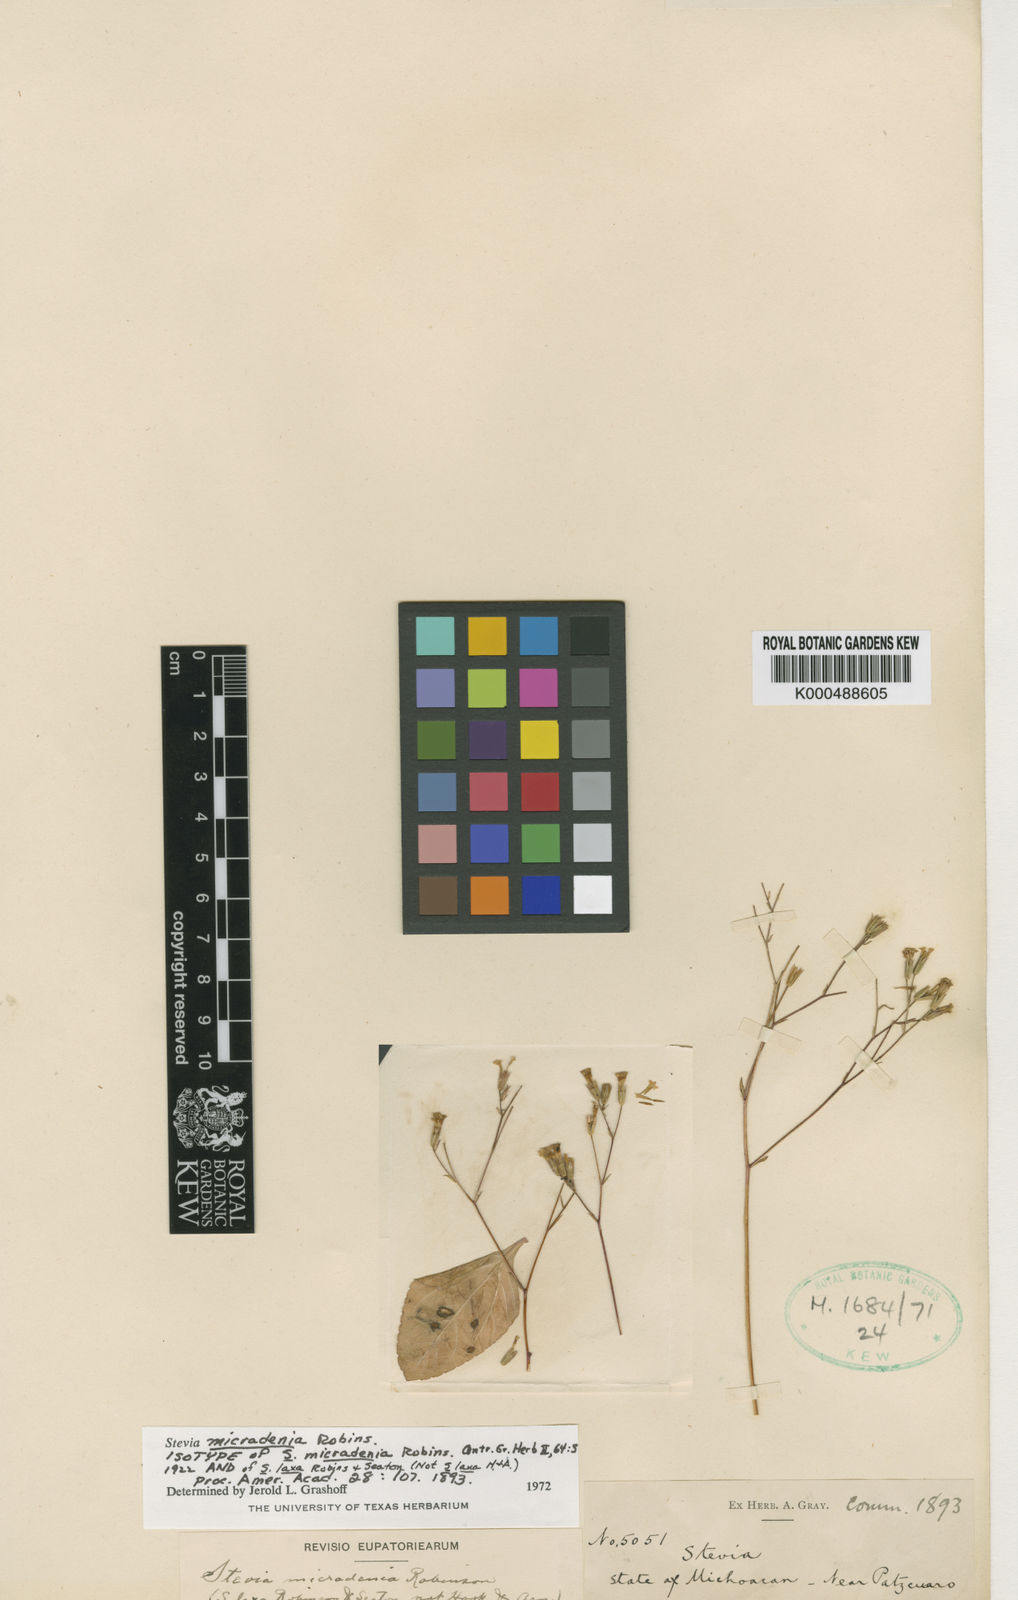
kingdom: Plantae
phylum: Tracheophyta
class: Magnoliopsida
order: Asterales
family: Asteraceae
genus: Stevia
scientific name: Stevia micradenia
